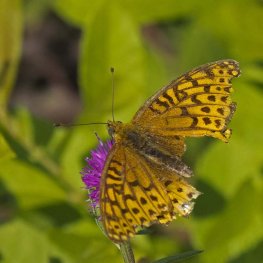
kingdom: Animalia
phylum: Arthropoda
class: Insecta
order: Lepidoptera
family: Nymphalidae
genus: Speyeria
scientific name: Speyeria atlantis
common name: Atlantis Fritillary
